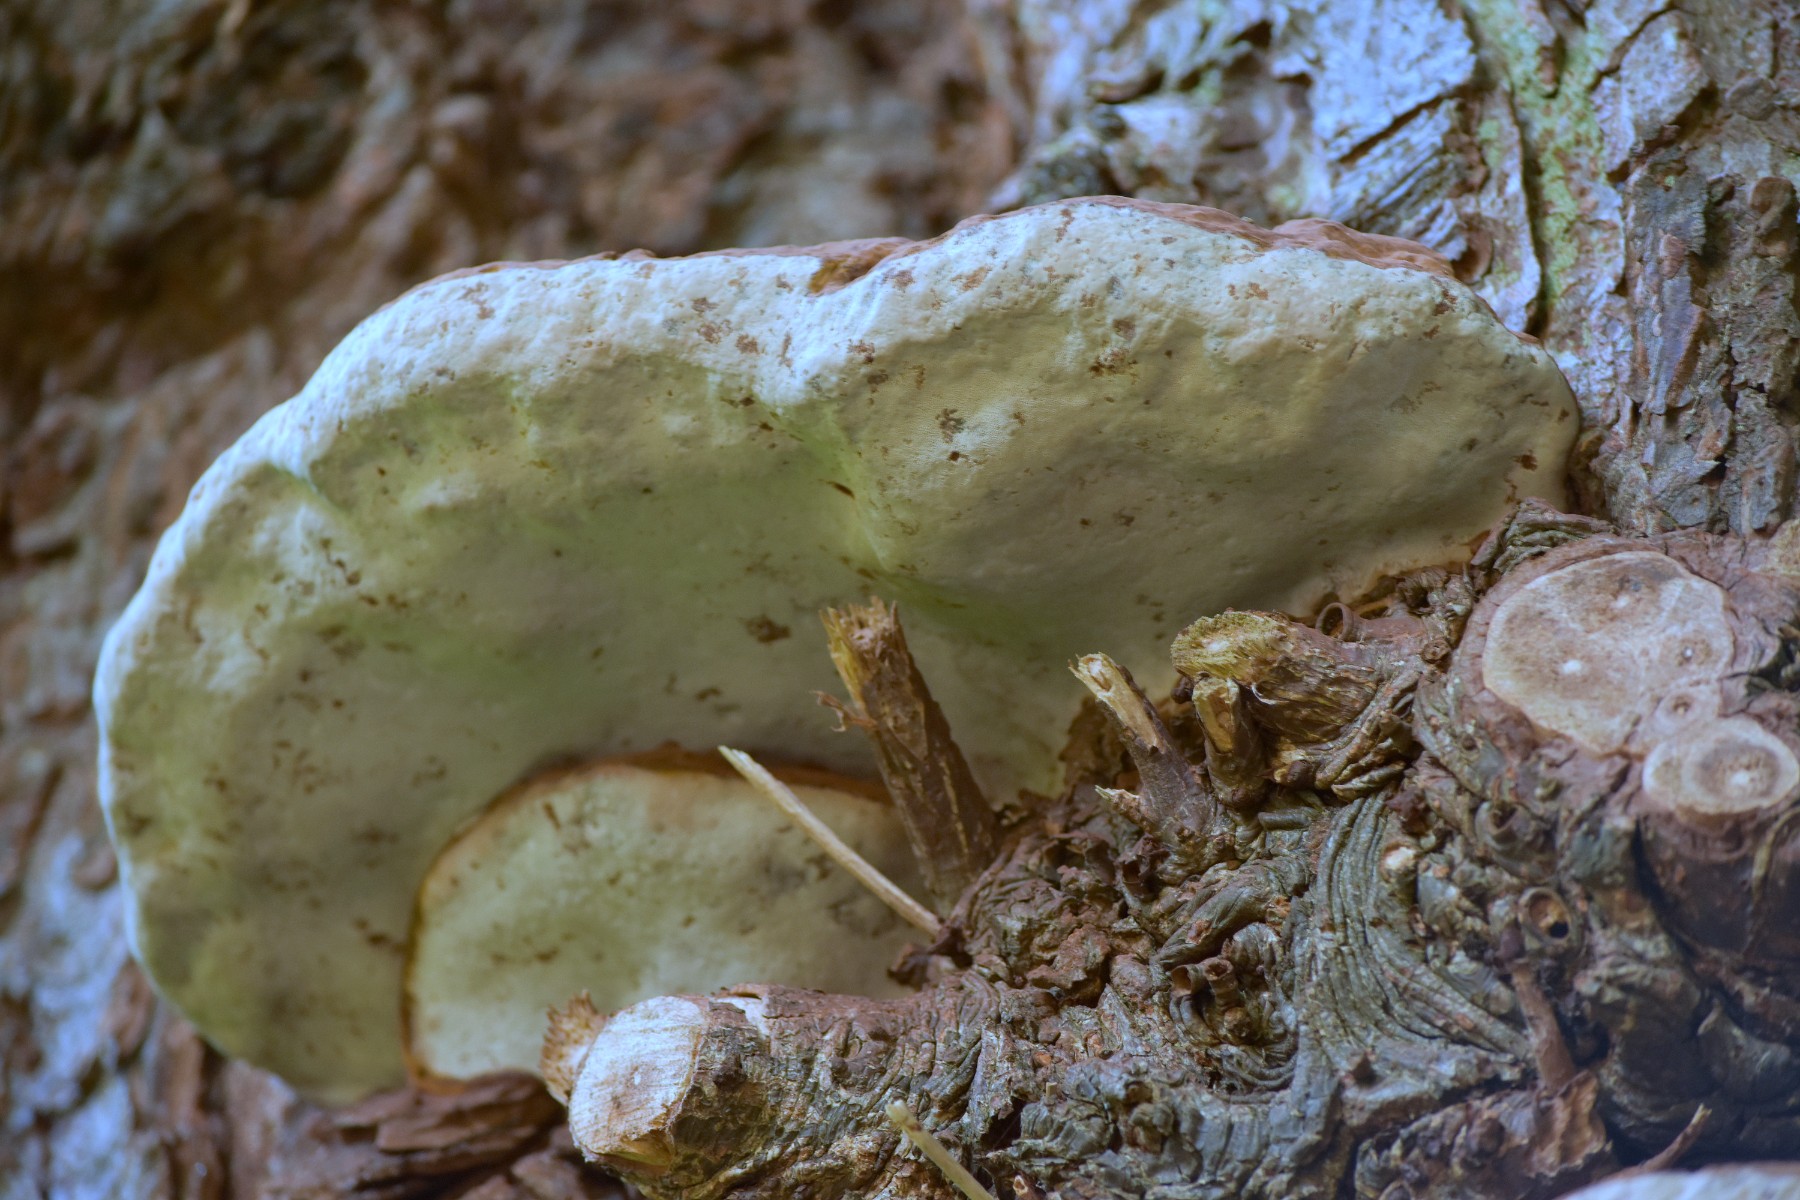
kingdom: Fungi
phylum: Basidiomycota
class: Agaricomycetes
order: Polyporales
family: Polyporaceae
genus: Ganoderma
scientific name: Ganoderma adspersum
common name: grov lakporesvamp
